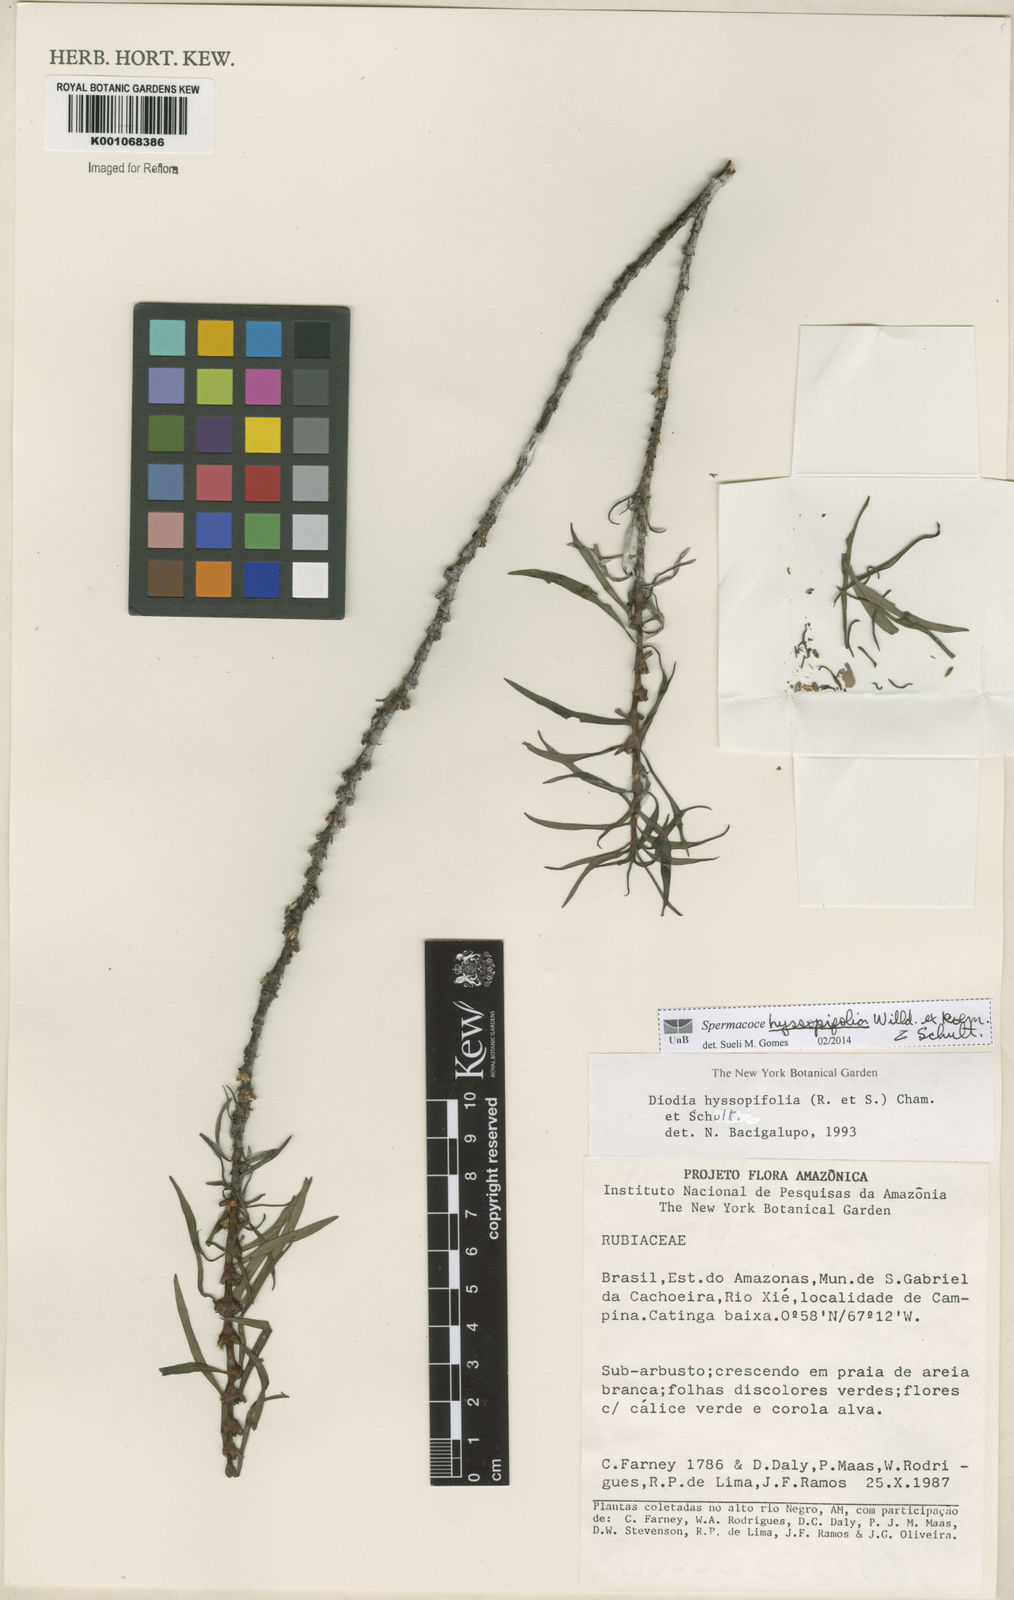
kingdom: Plantae
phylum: Tracheophyta
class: Magnoliopsida
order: Gentianales
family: Rubiaceae
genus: Spermacoce
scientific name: Spermacoce
